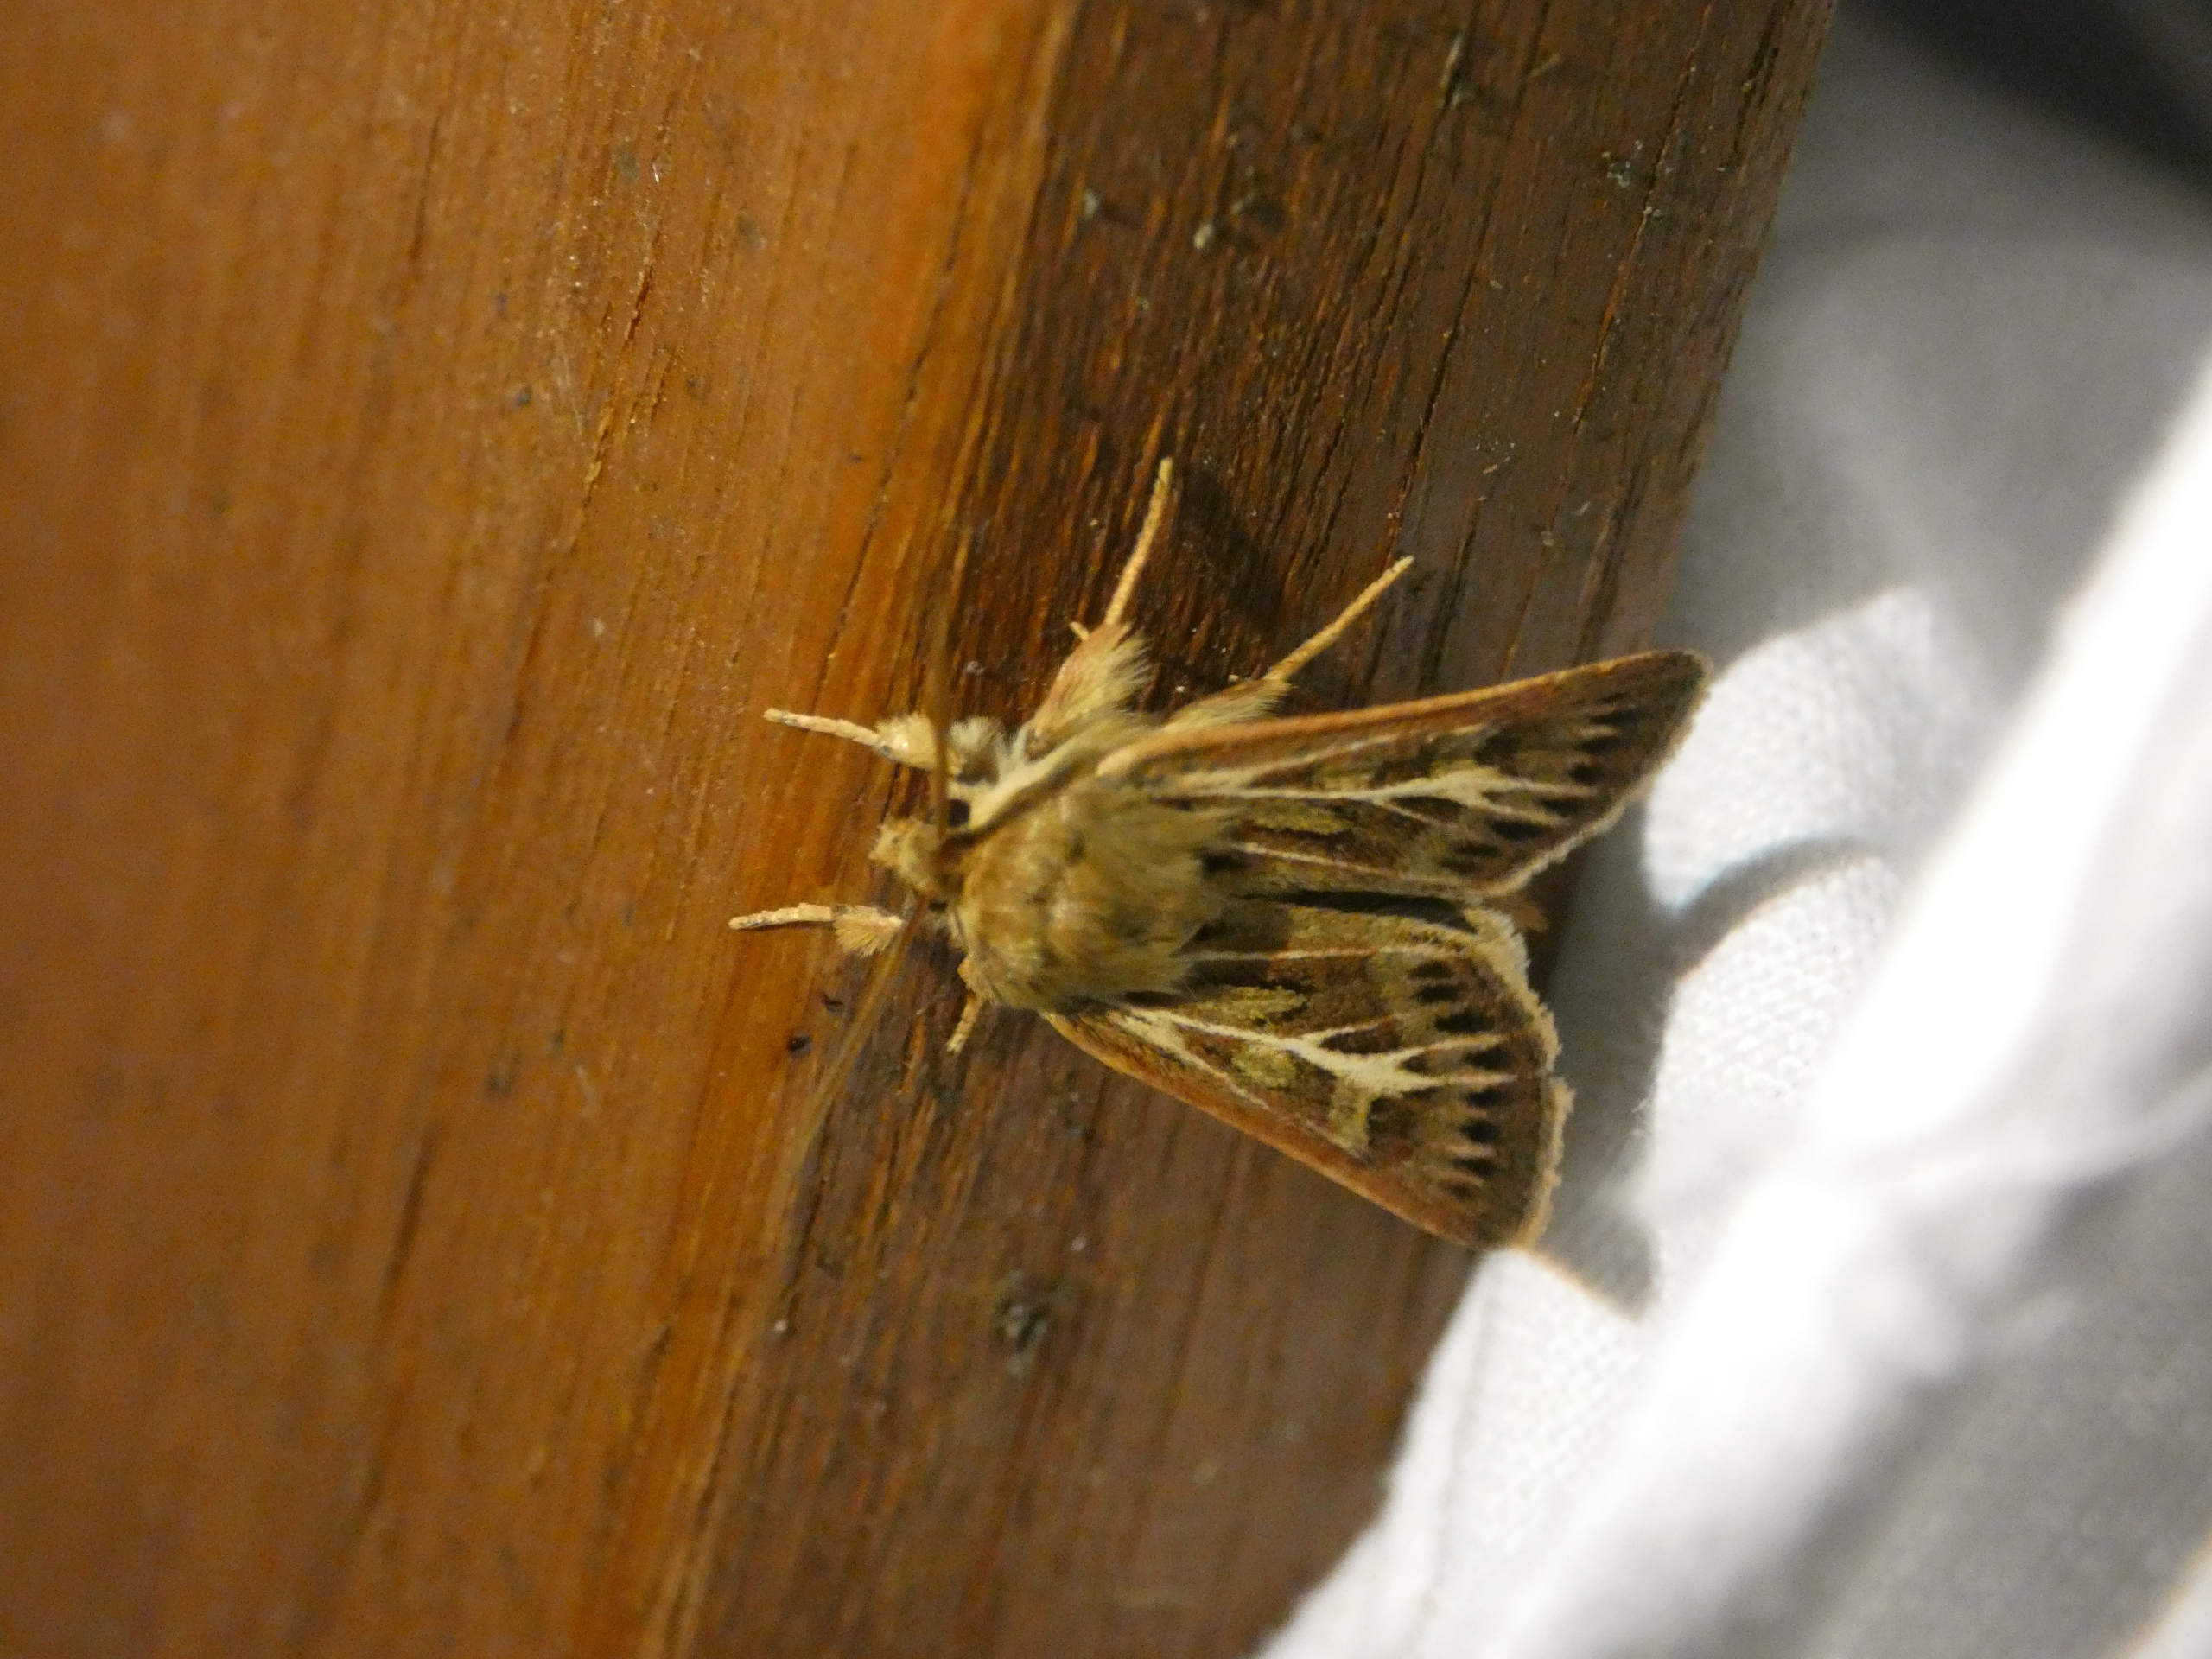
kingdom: Animalia
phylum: Arthropoda
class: Insecta
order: Lepidoptera
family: Noctuidae
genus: Cerapteryx
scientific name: Cerapteryx graminis
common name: Mosebunkeugle
